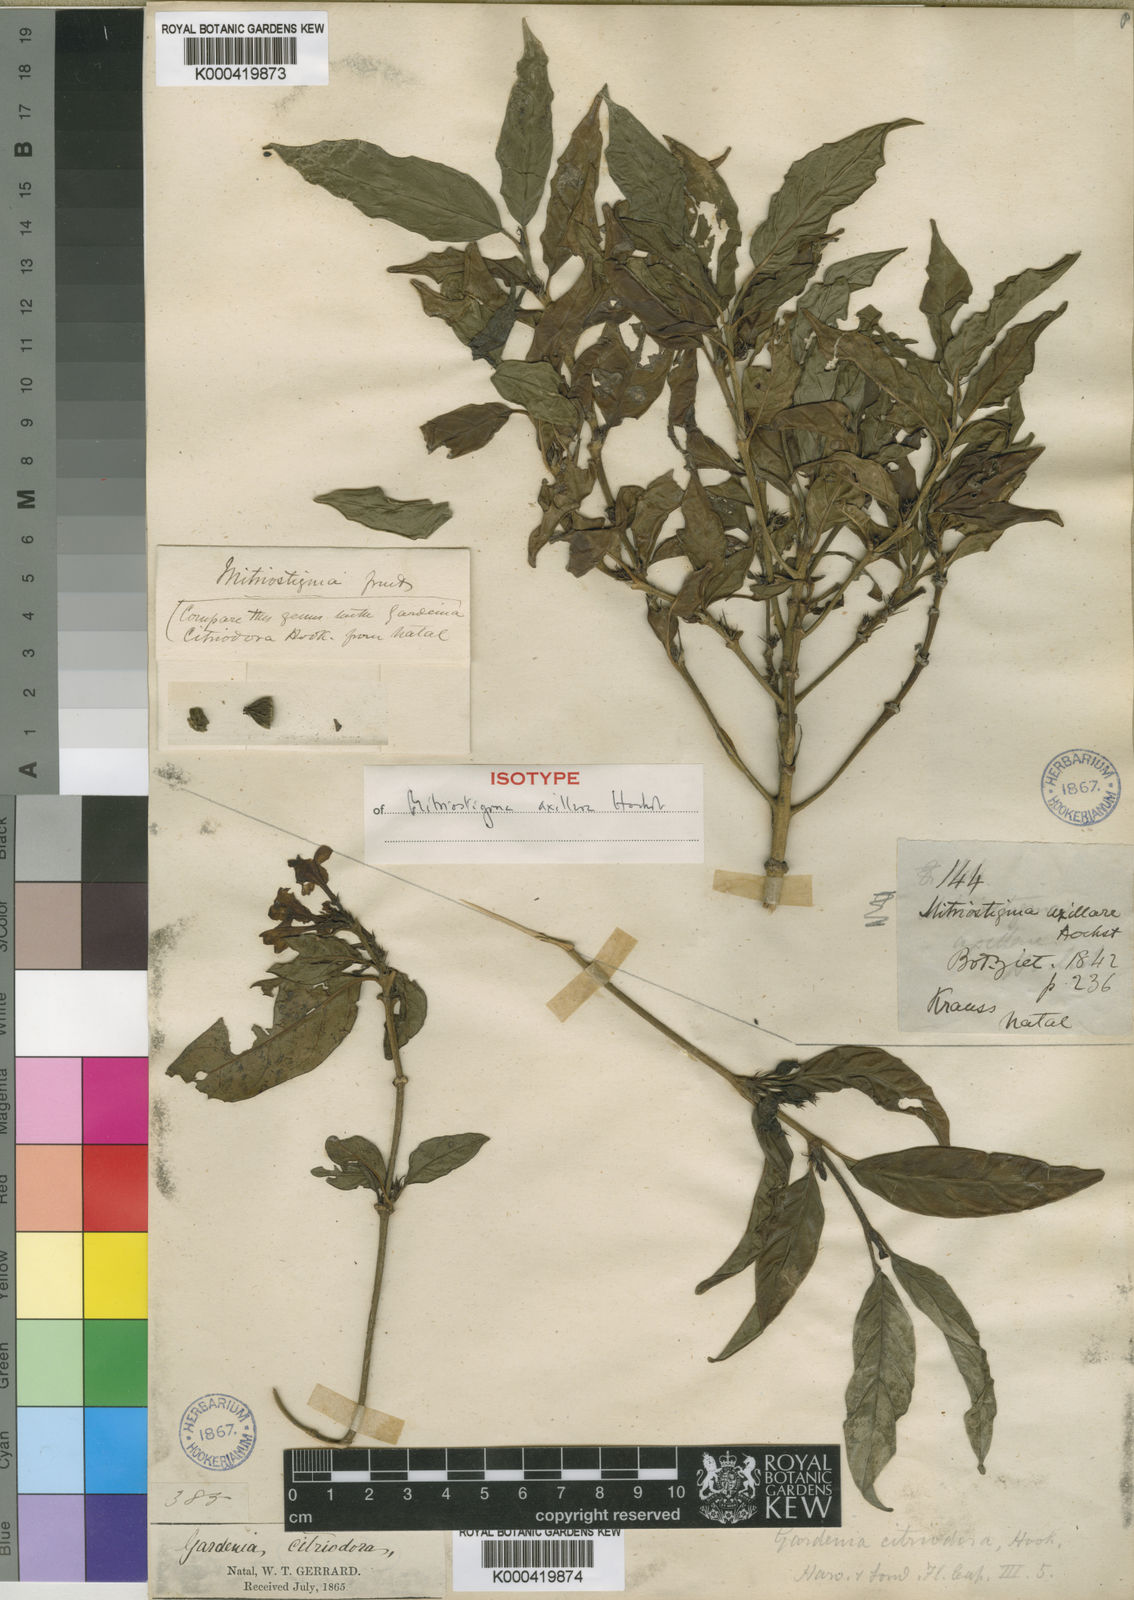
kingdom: Plantae
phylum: Tracheophyta
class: Magnoliopsida
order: Gentianales
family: Rubiaceae
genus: Mitriostigma
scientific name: Mitriostigma axillare
